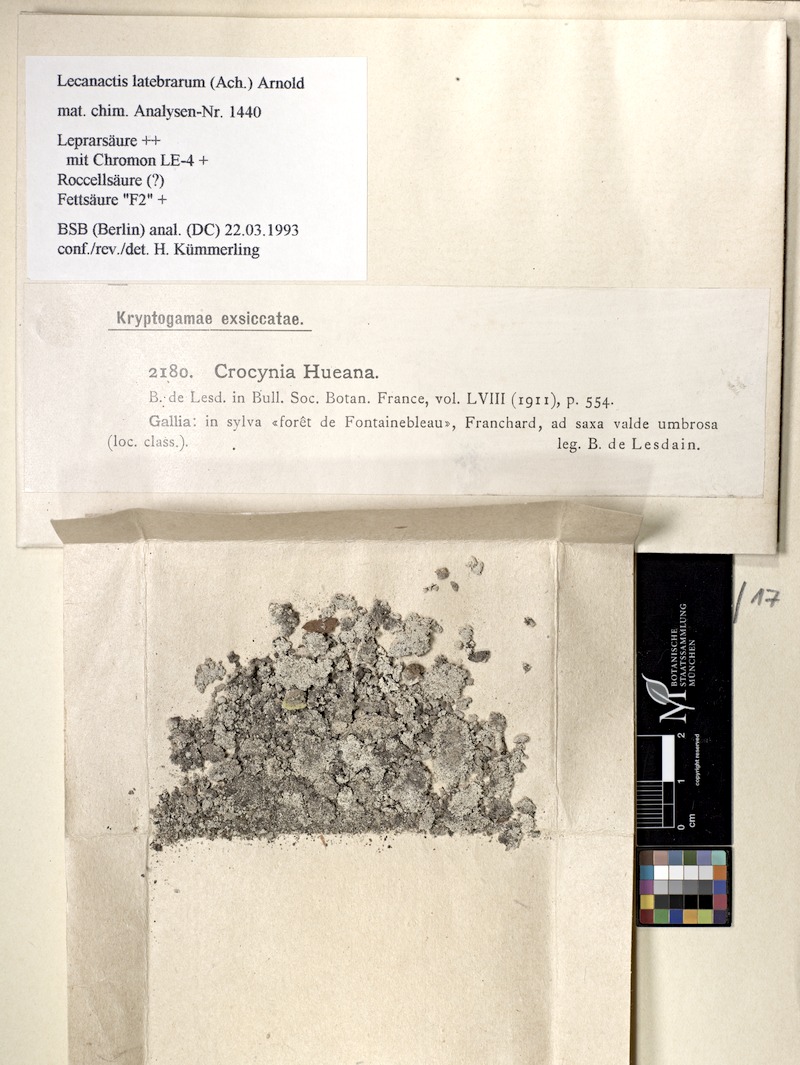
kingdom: Fungi
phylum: Ascomycota
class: Arthoniomycetes
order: Arthoniales
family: Roccellaceae
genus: Dendrographa
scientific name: Dendrographa latebrarum
